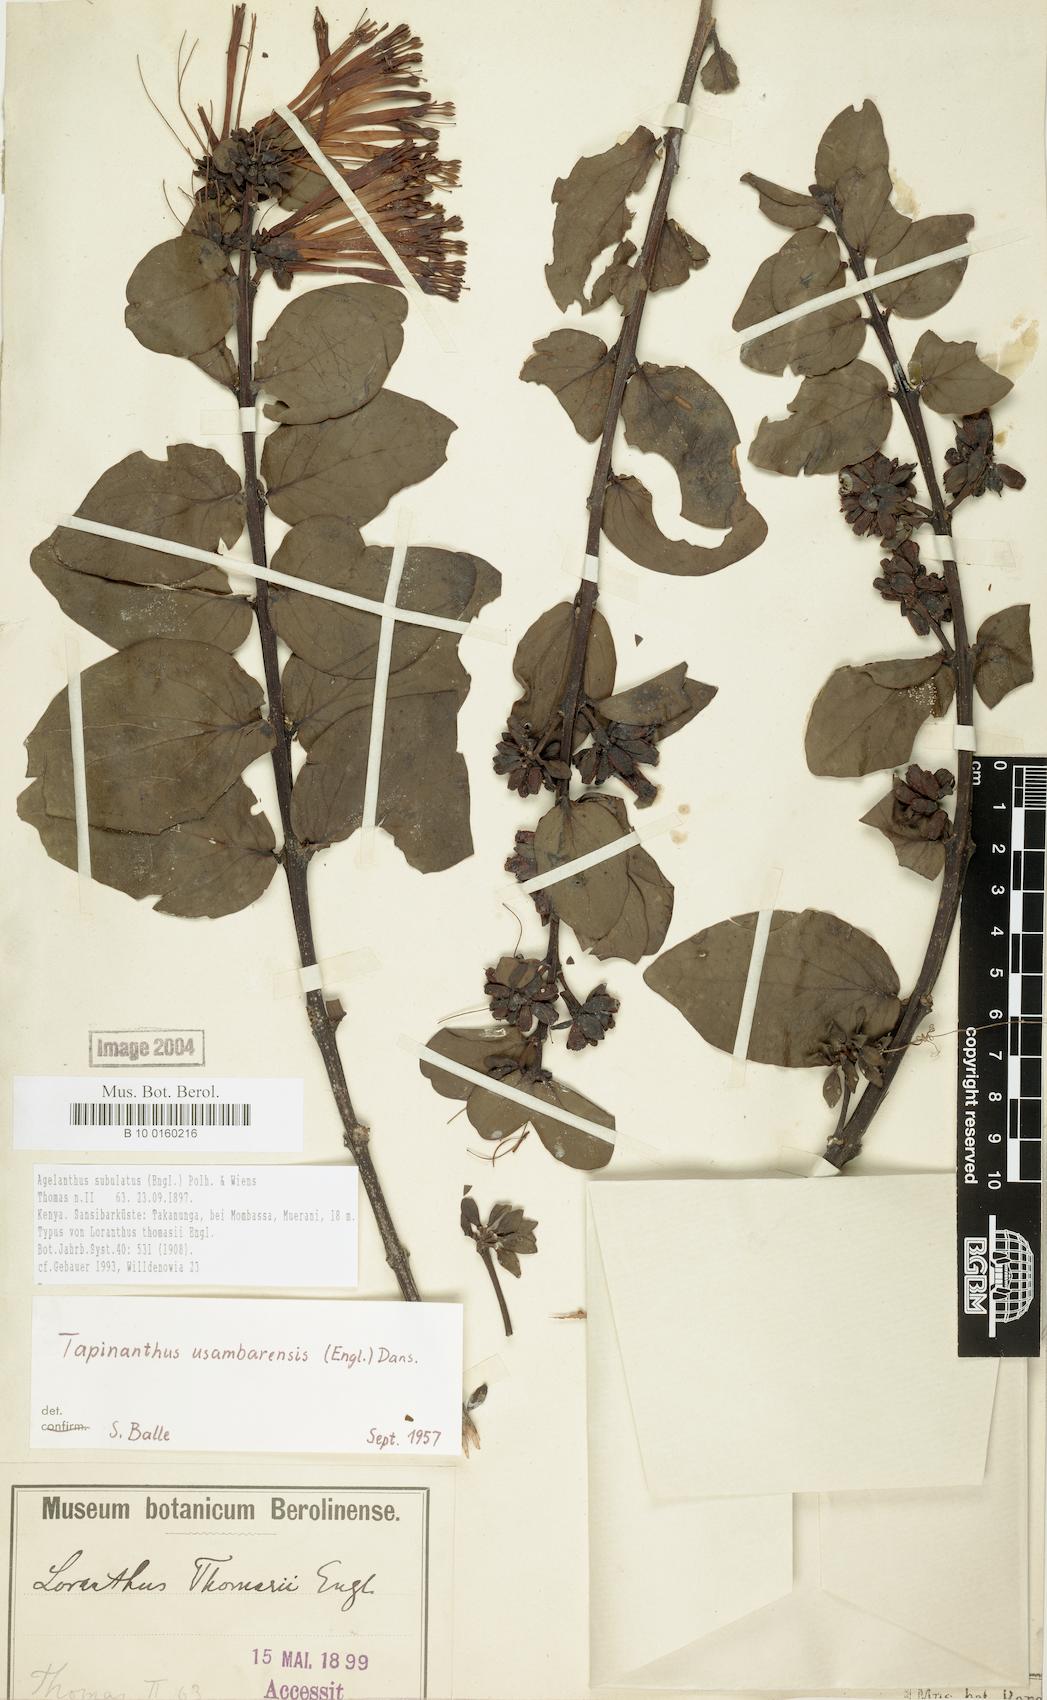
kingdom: Plantae
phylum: Tracheophyta
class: Magnoliopsida
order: Santalales
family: Loranthaceae
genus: Agelanthus
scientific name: Agelanthus subulatus
